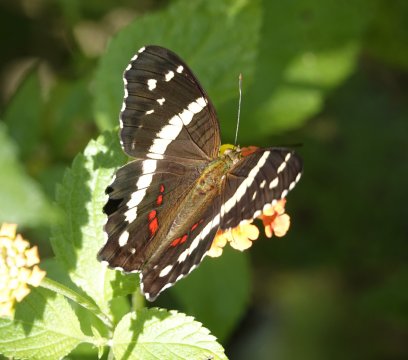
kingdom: Animalia
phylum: Arthropoda
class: Insecta
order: Lepidoptera
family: Nymphalidae
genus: Anartia
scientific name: Anartia fatima
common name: Banded Peacock
